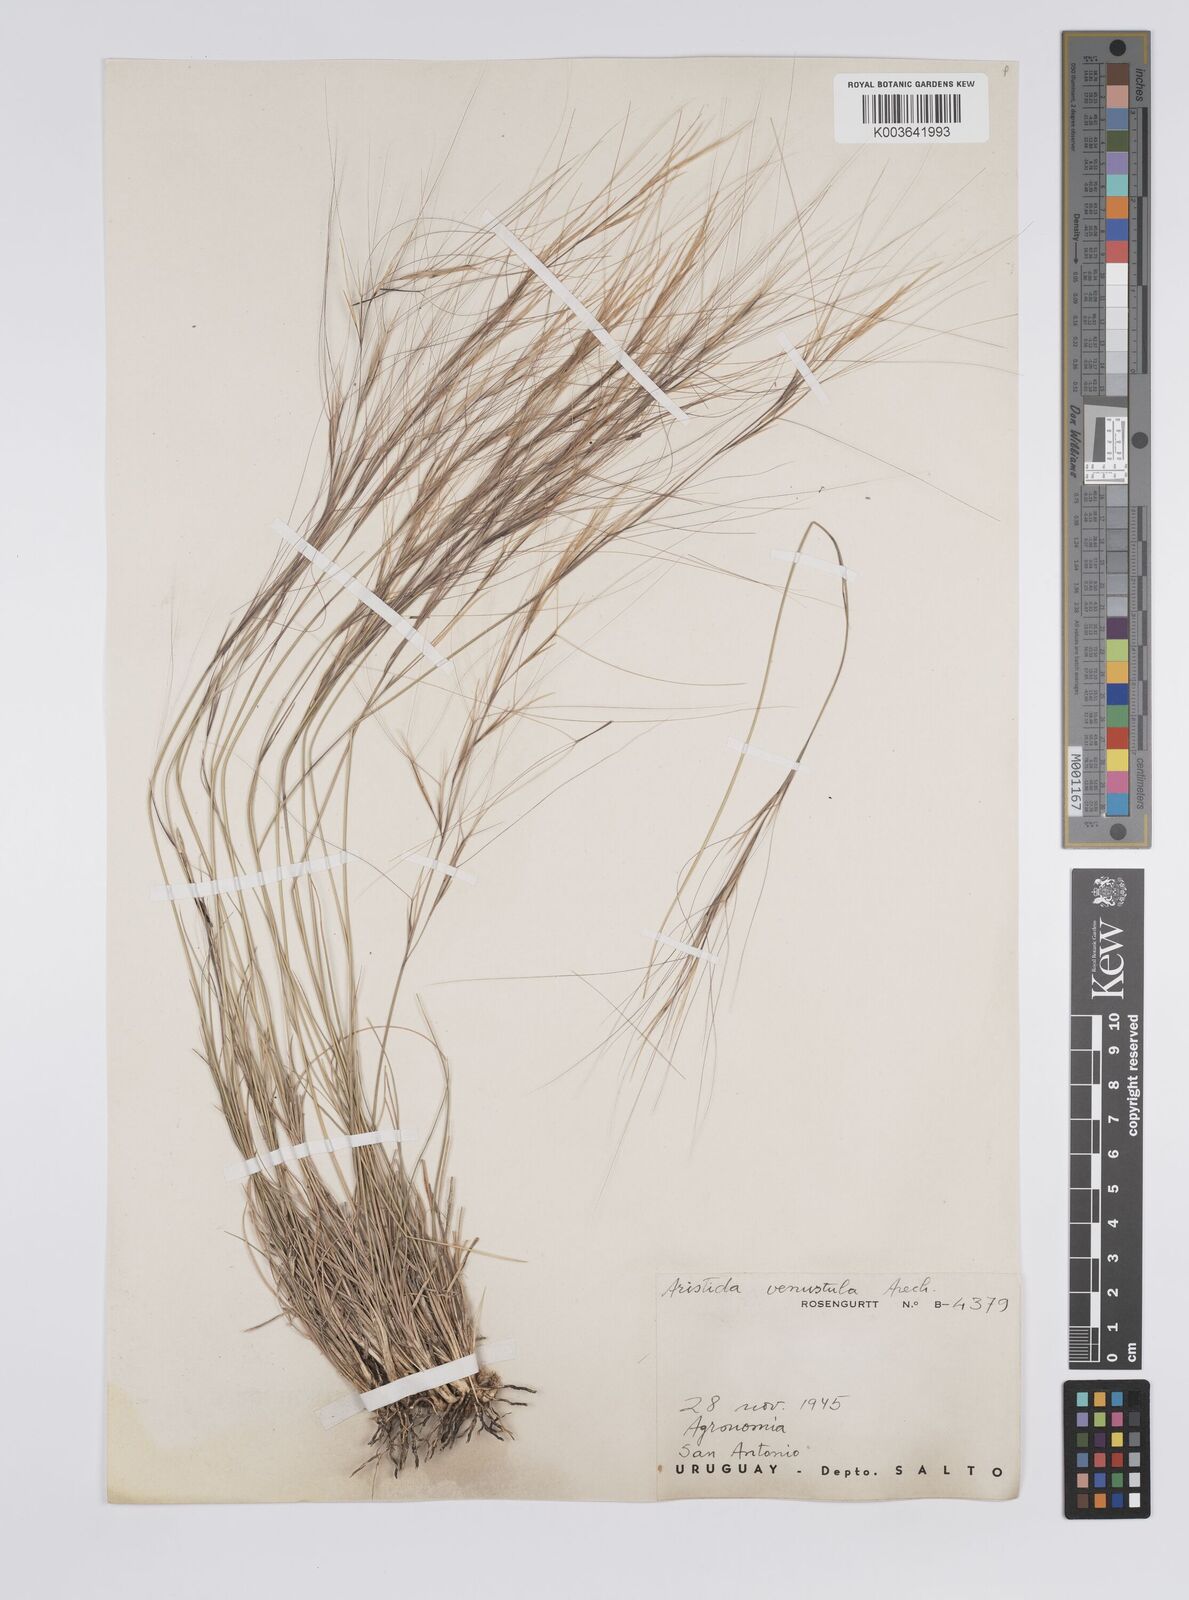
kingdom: Plantae
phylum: Tracheophyta
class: Liliopsida
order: Poales
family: Poaceae
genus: Aristida
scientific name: Aristida venustula
